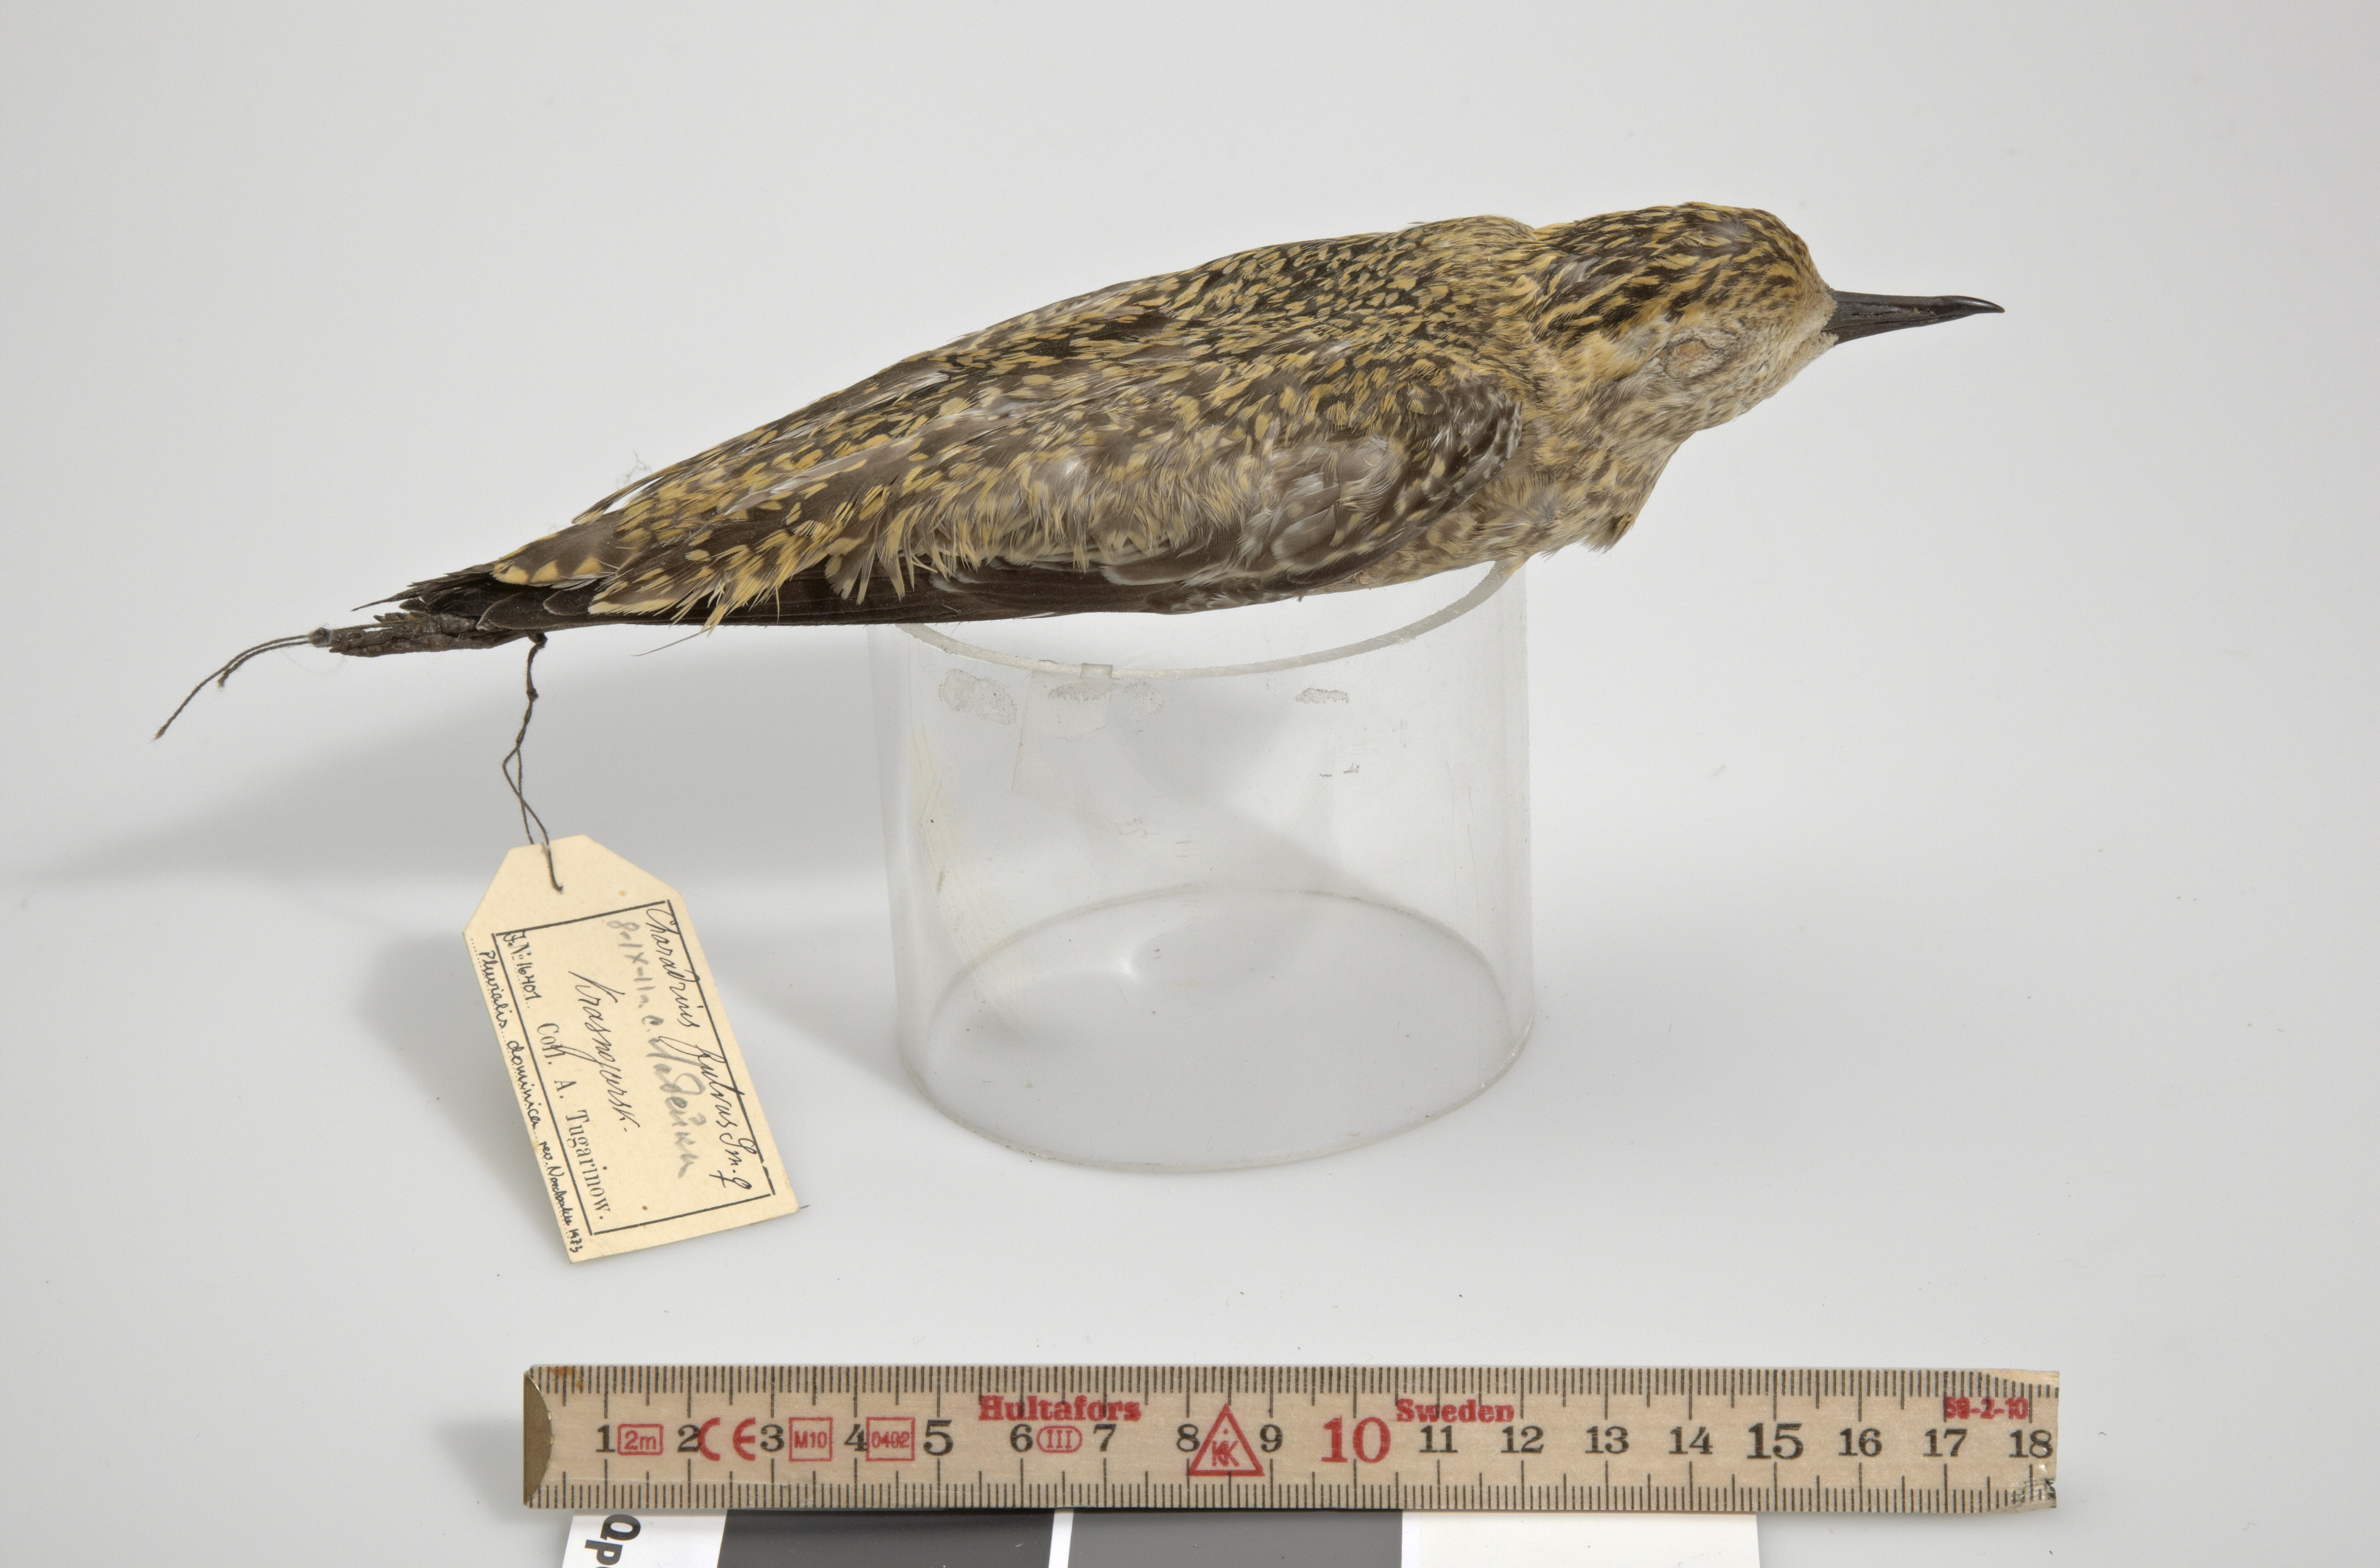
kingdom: Animalia
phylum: Chordata
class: Aves
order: Charadriiformes
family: Charadriidae
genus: Pluvialis
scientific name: Pluvialis fulva
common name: Pacific golden plover
